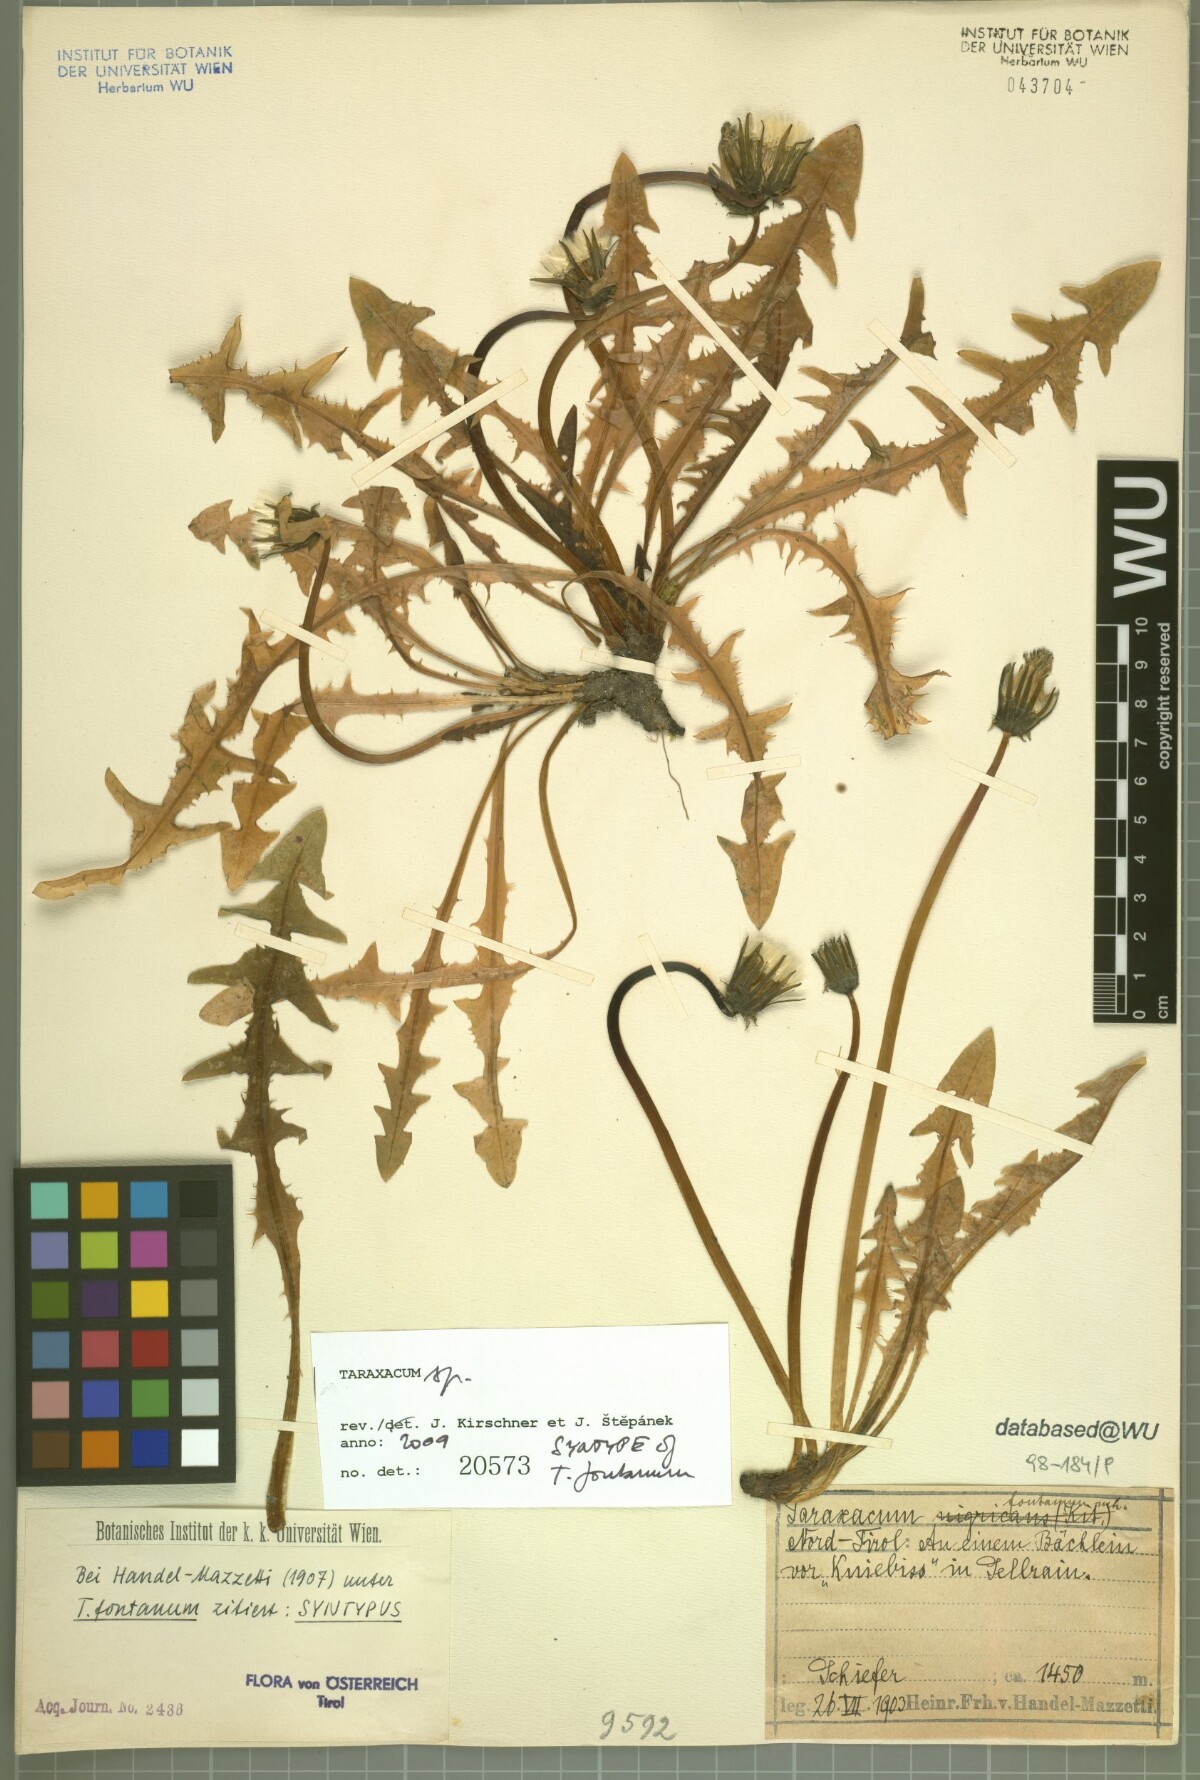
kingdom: Plantae
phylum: Tracheophyta
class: Magnoliopsida
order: Asterales
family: Asteraceae
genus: Taraxacum
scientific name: Taraxacum fontanum
